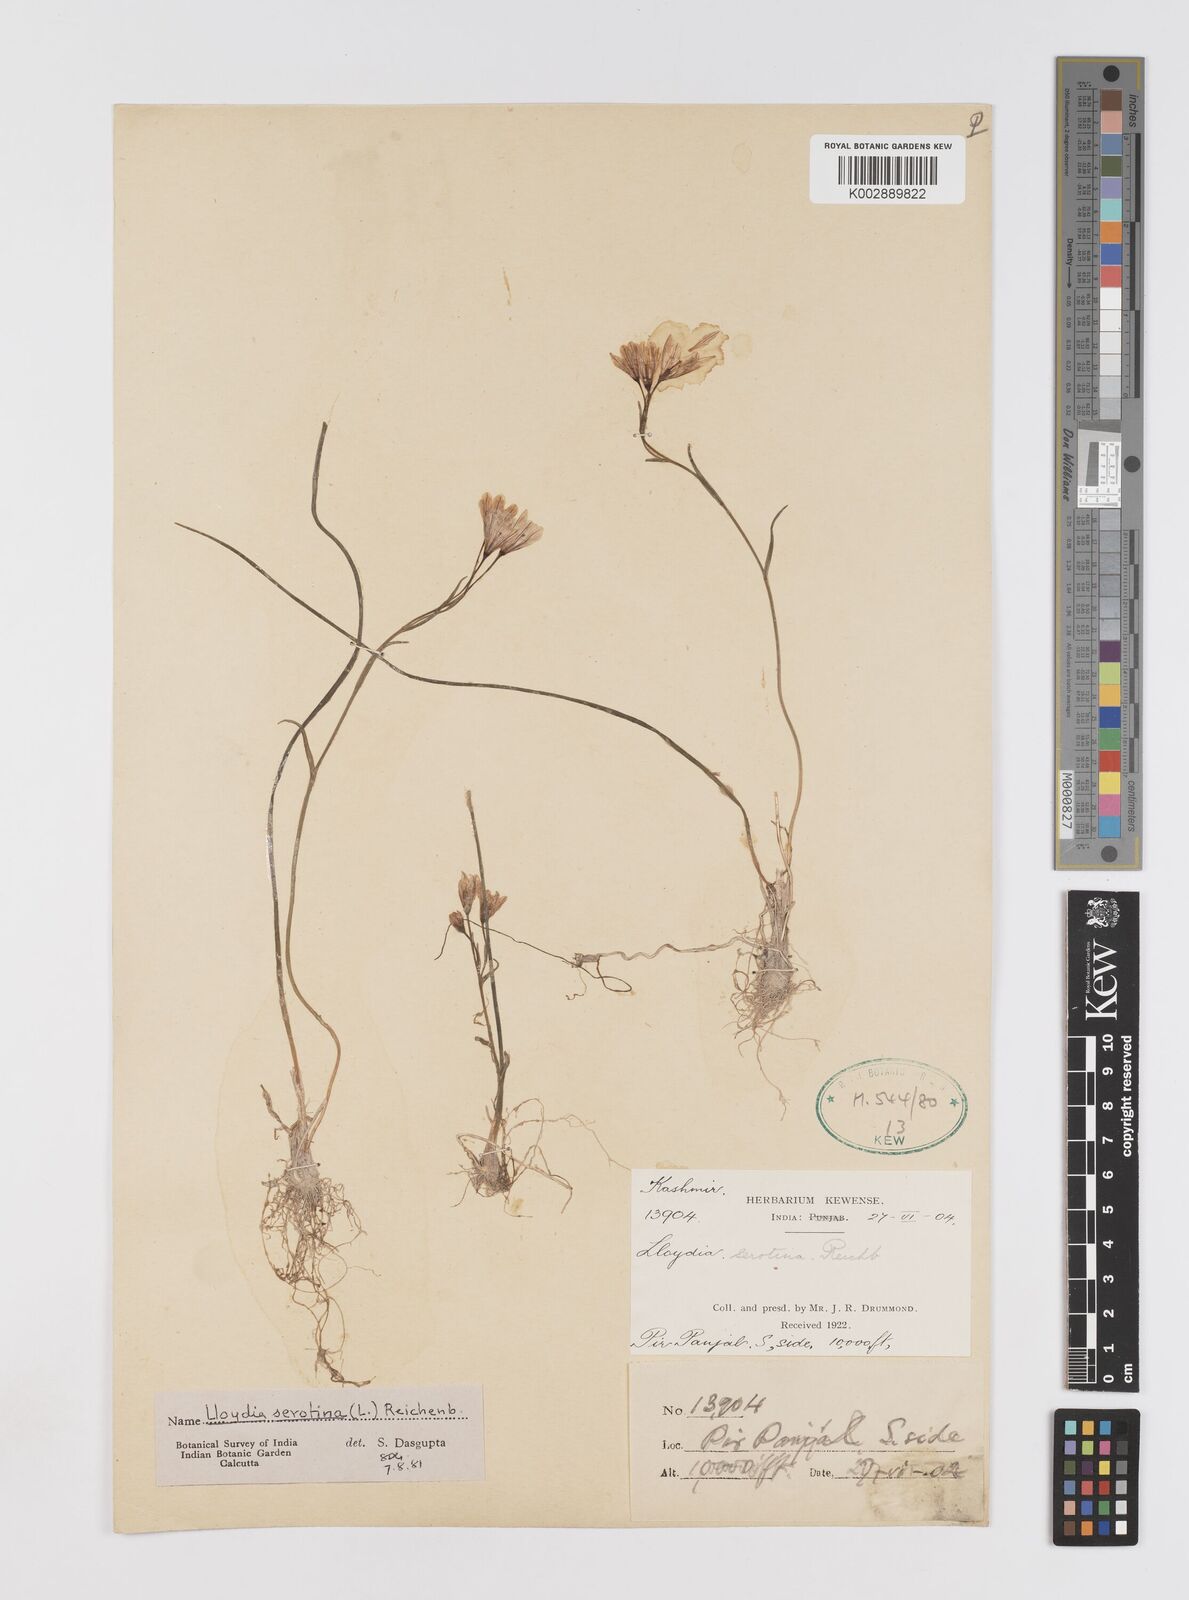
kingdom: Plantae
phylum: Tracheophyta
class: Liliopsida
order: Liliales
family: Liliaceae
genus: Gagea
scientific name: Gagea serotina
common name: Snowdon lily
